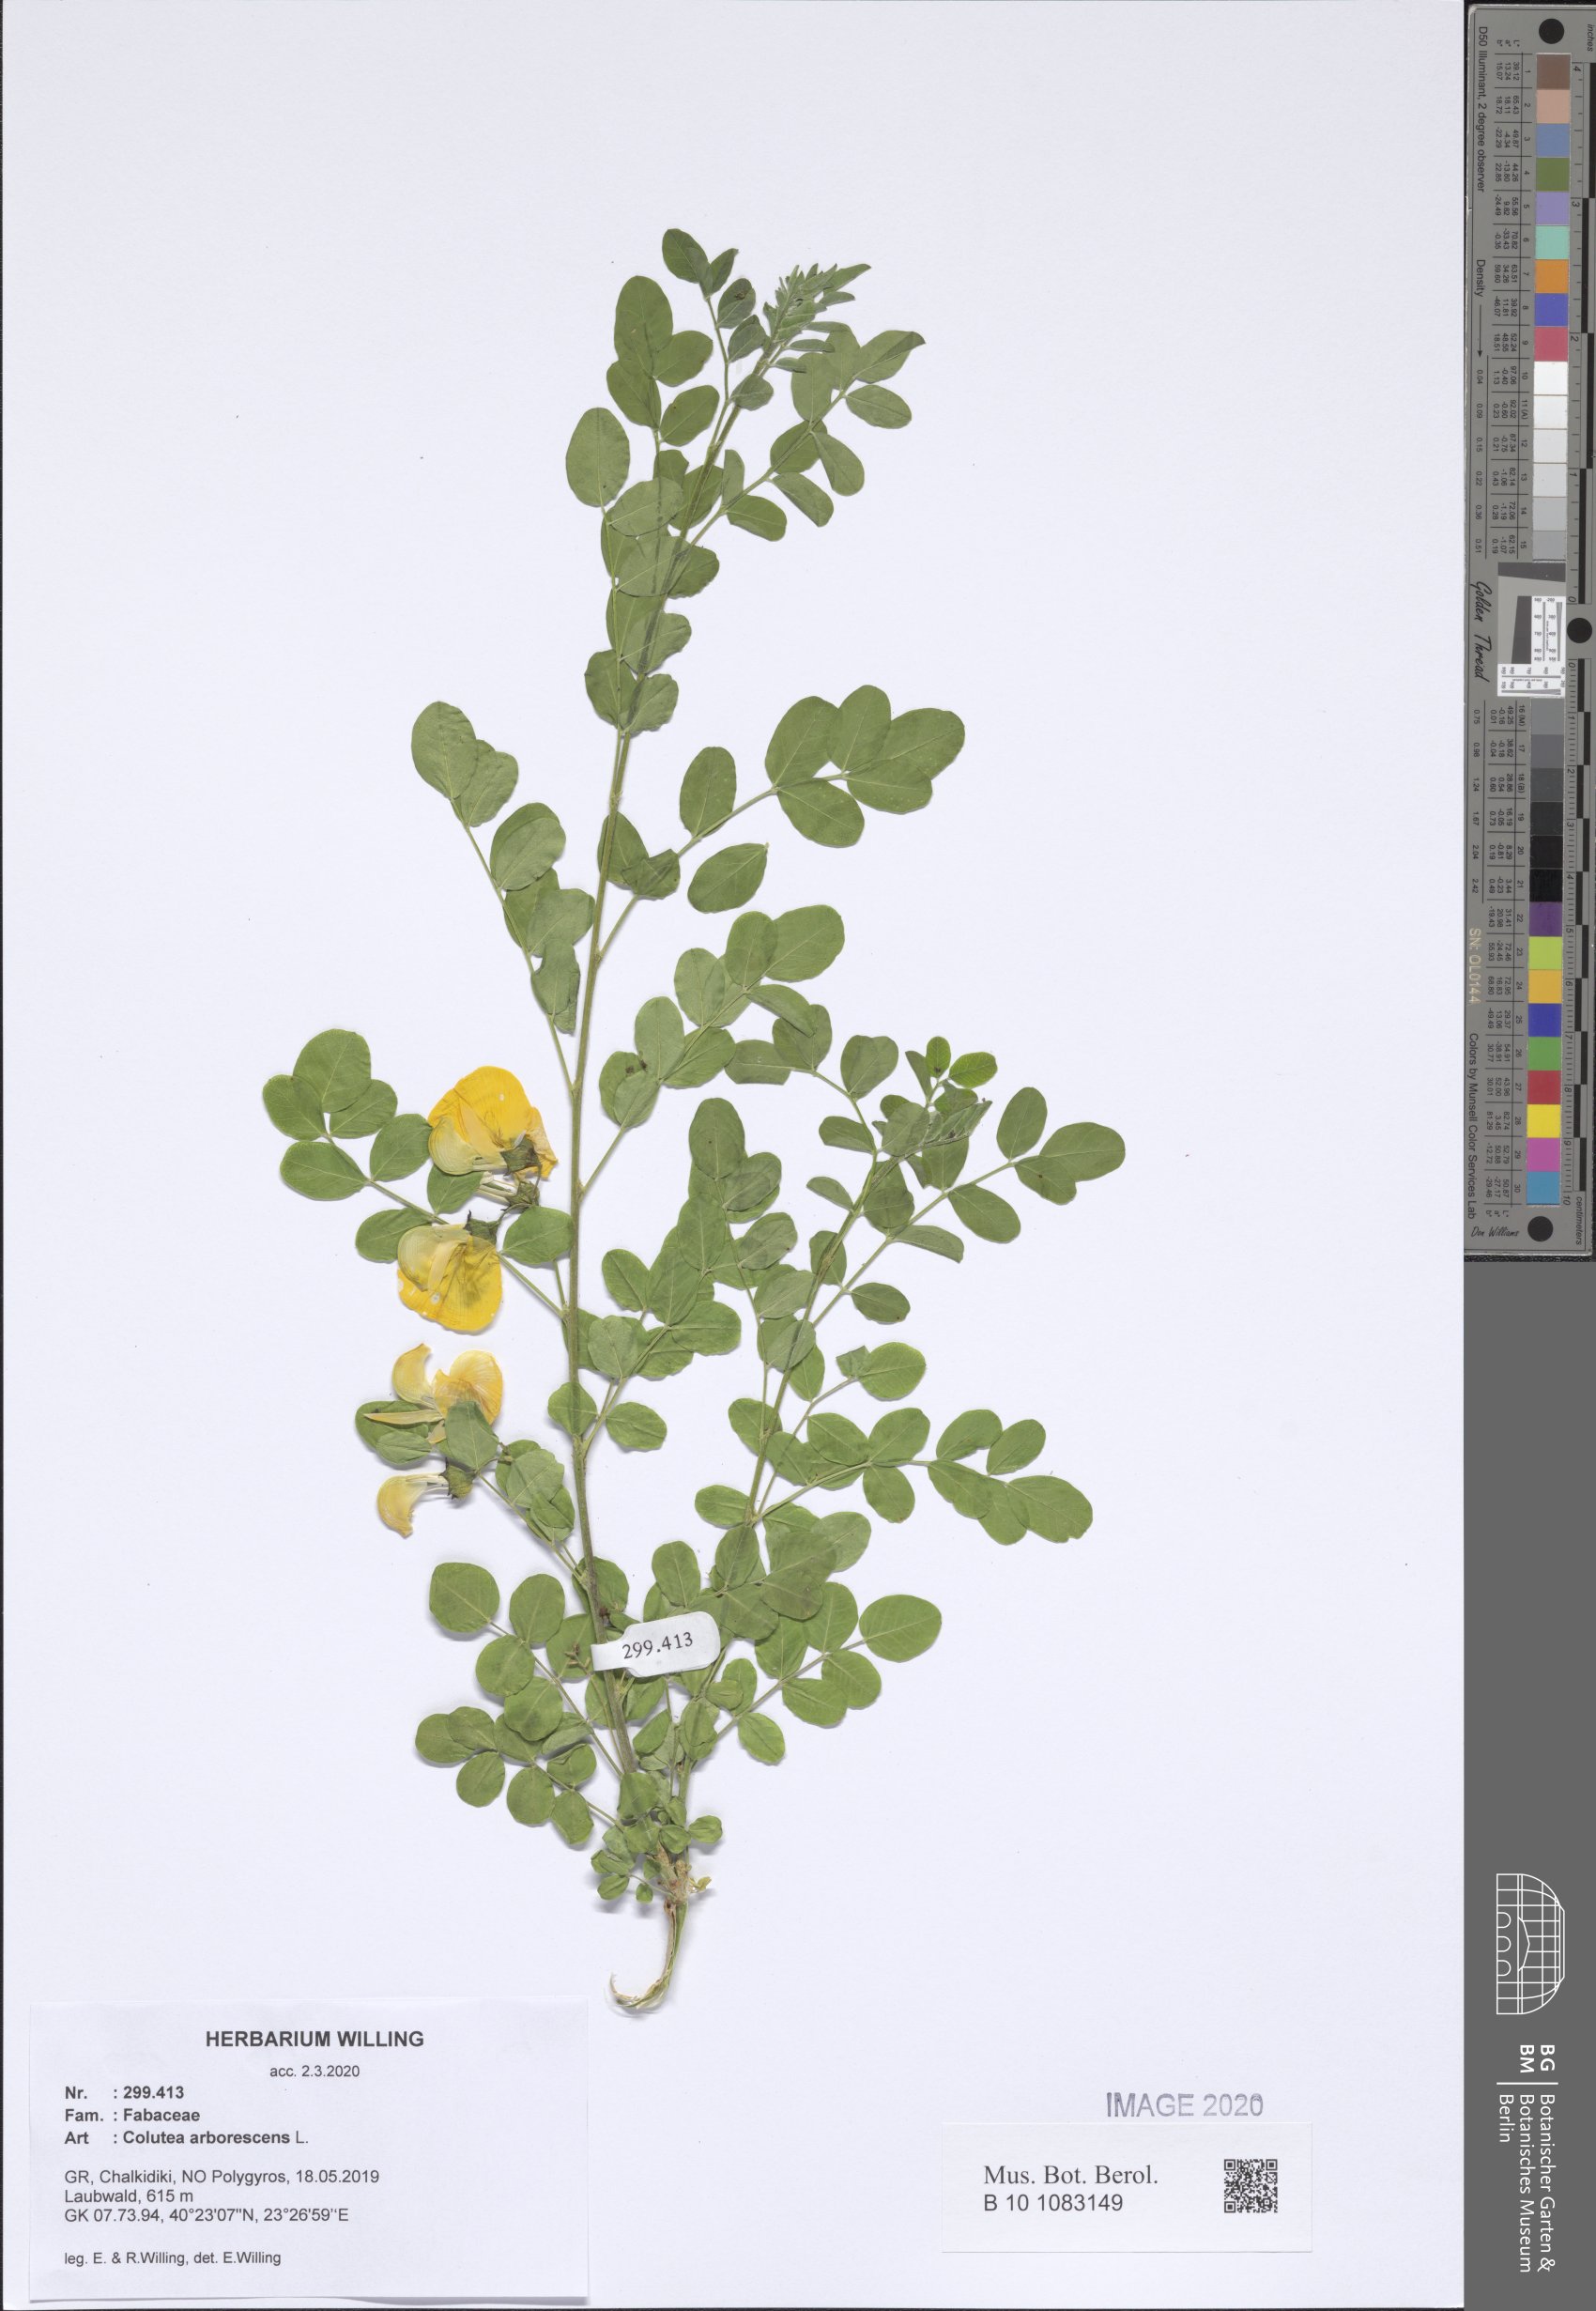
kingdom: Plantae
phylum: Tracheophyta
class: Magnoliopsida
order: Fabales
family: Fabaceae
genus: Colutea
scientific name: Colutea arborescens
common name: Bladder-senna
